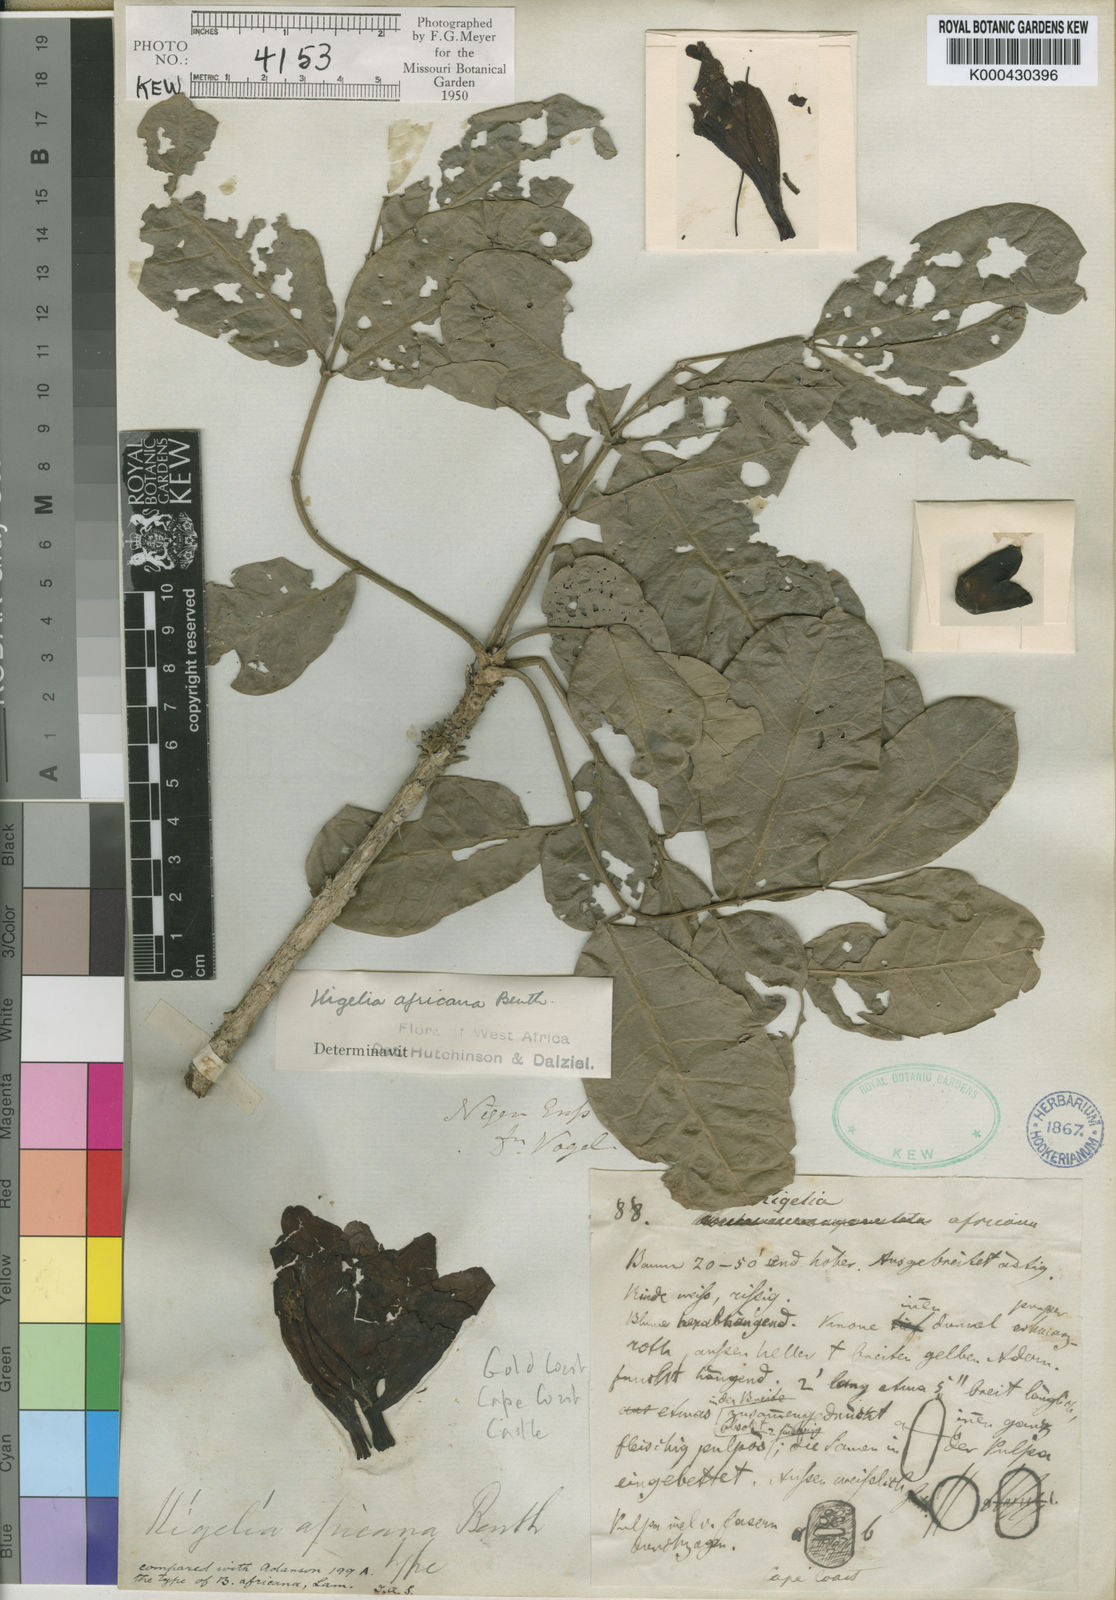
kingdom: Plantae
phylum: Tracheophyta
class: Magnoliopsida
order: Lamiales
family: Bignoniaceae
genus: Kigelia
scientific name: Kigelia africana
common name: Sausage tree
